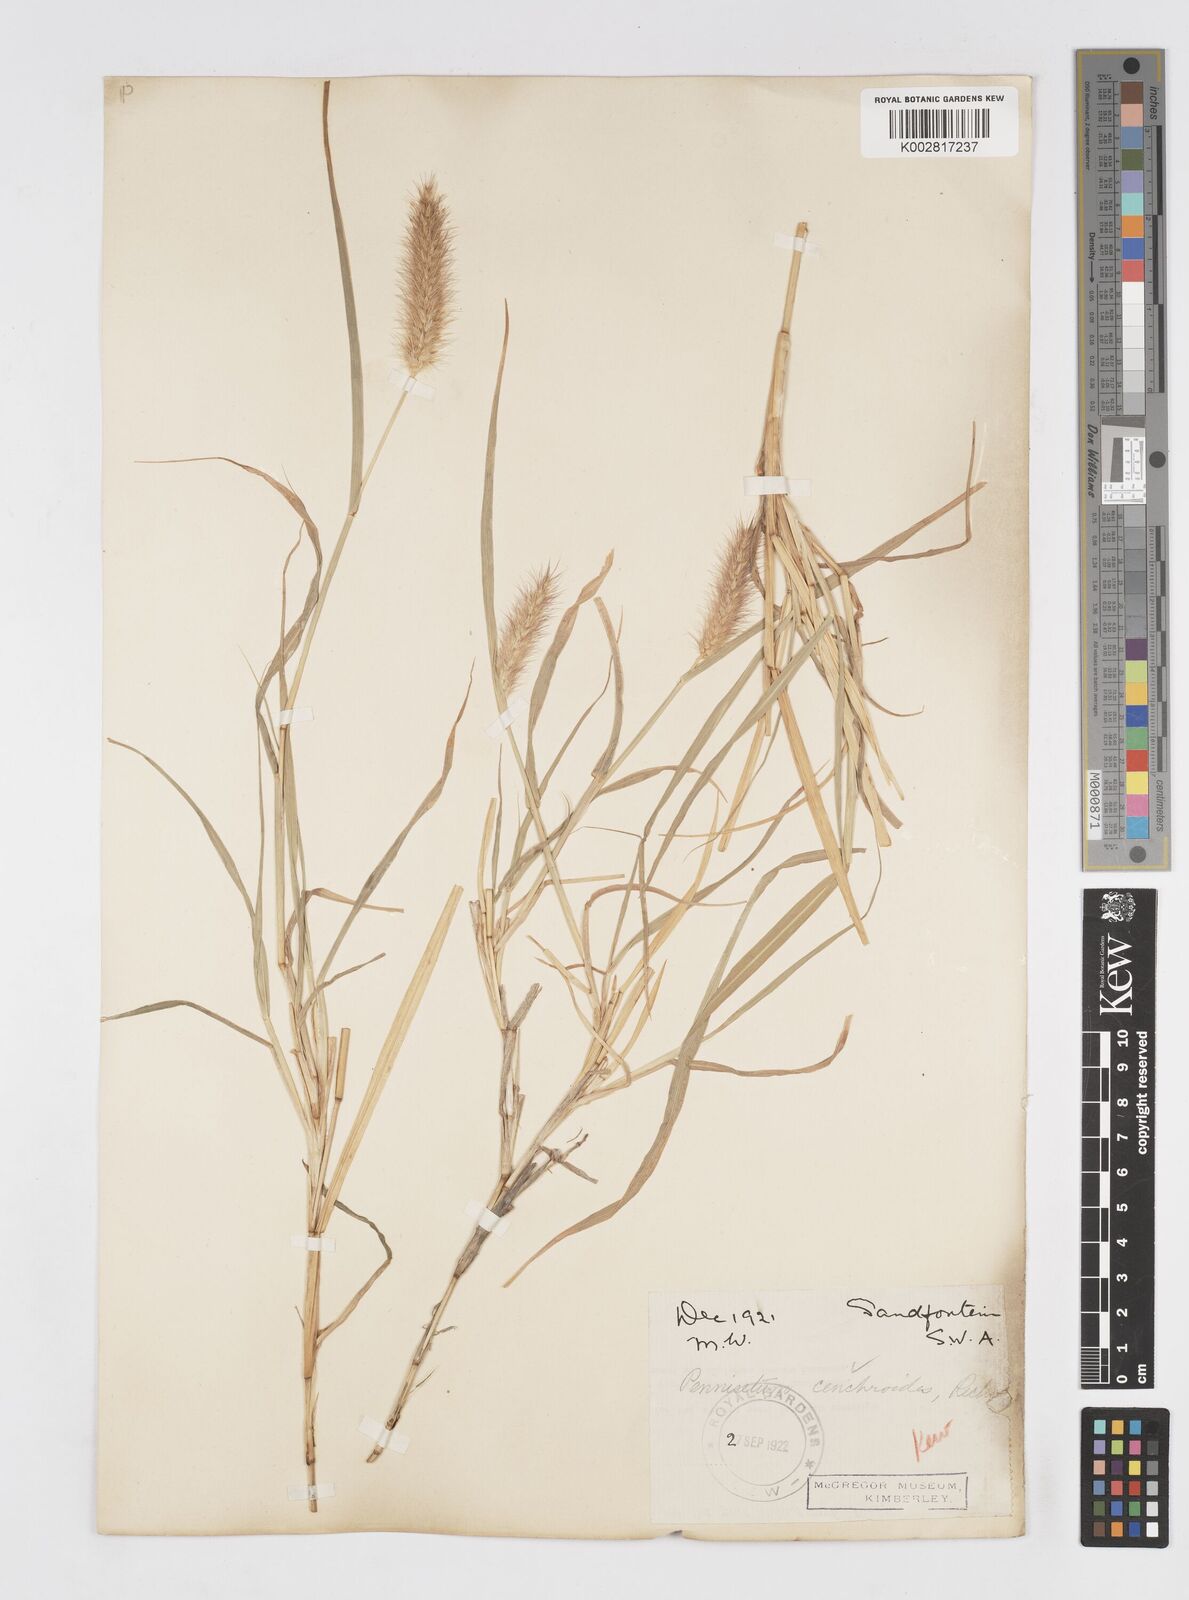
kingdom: Plantae
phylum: Tracheophyta
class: Liliopsida
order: Poales
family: Poaceae
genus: Cenchrus
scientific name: Cenchrus ciliaris
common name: Buffelgrass
